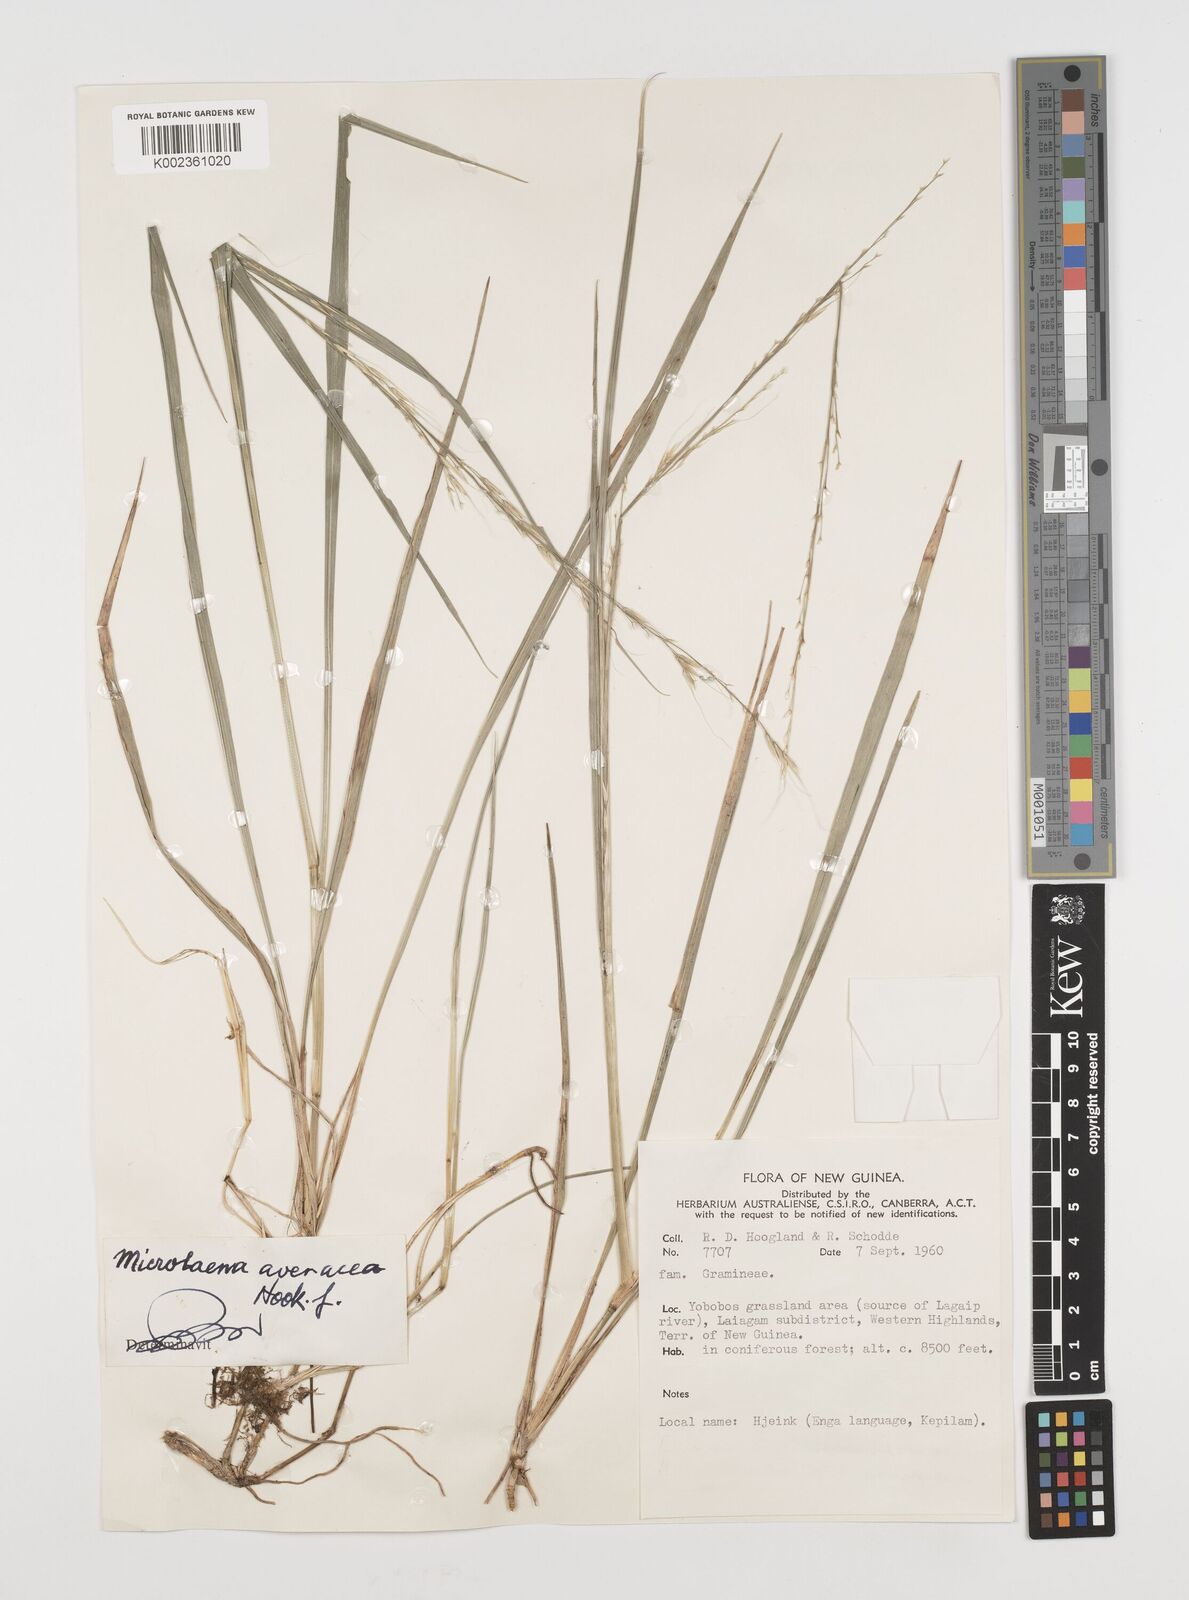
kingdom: Plantae
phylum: Tracheophyta
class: Liliopsida
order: Poales
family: Poaceae
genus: Ehrharta
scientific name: Ehrharta diplax
